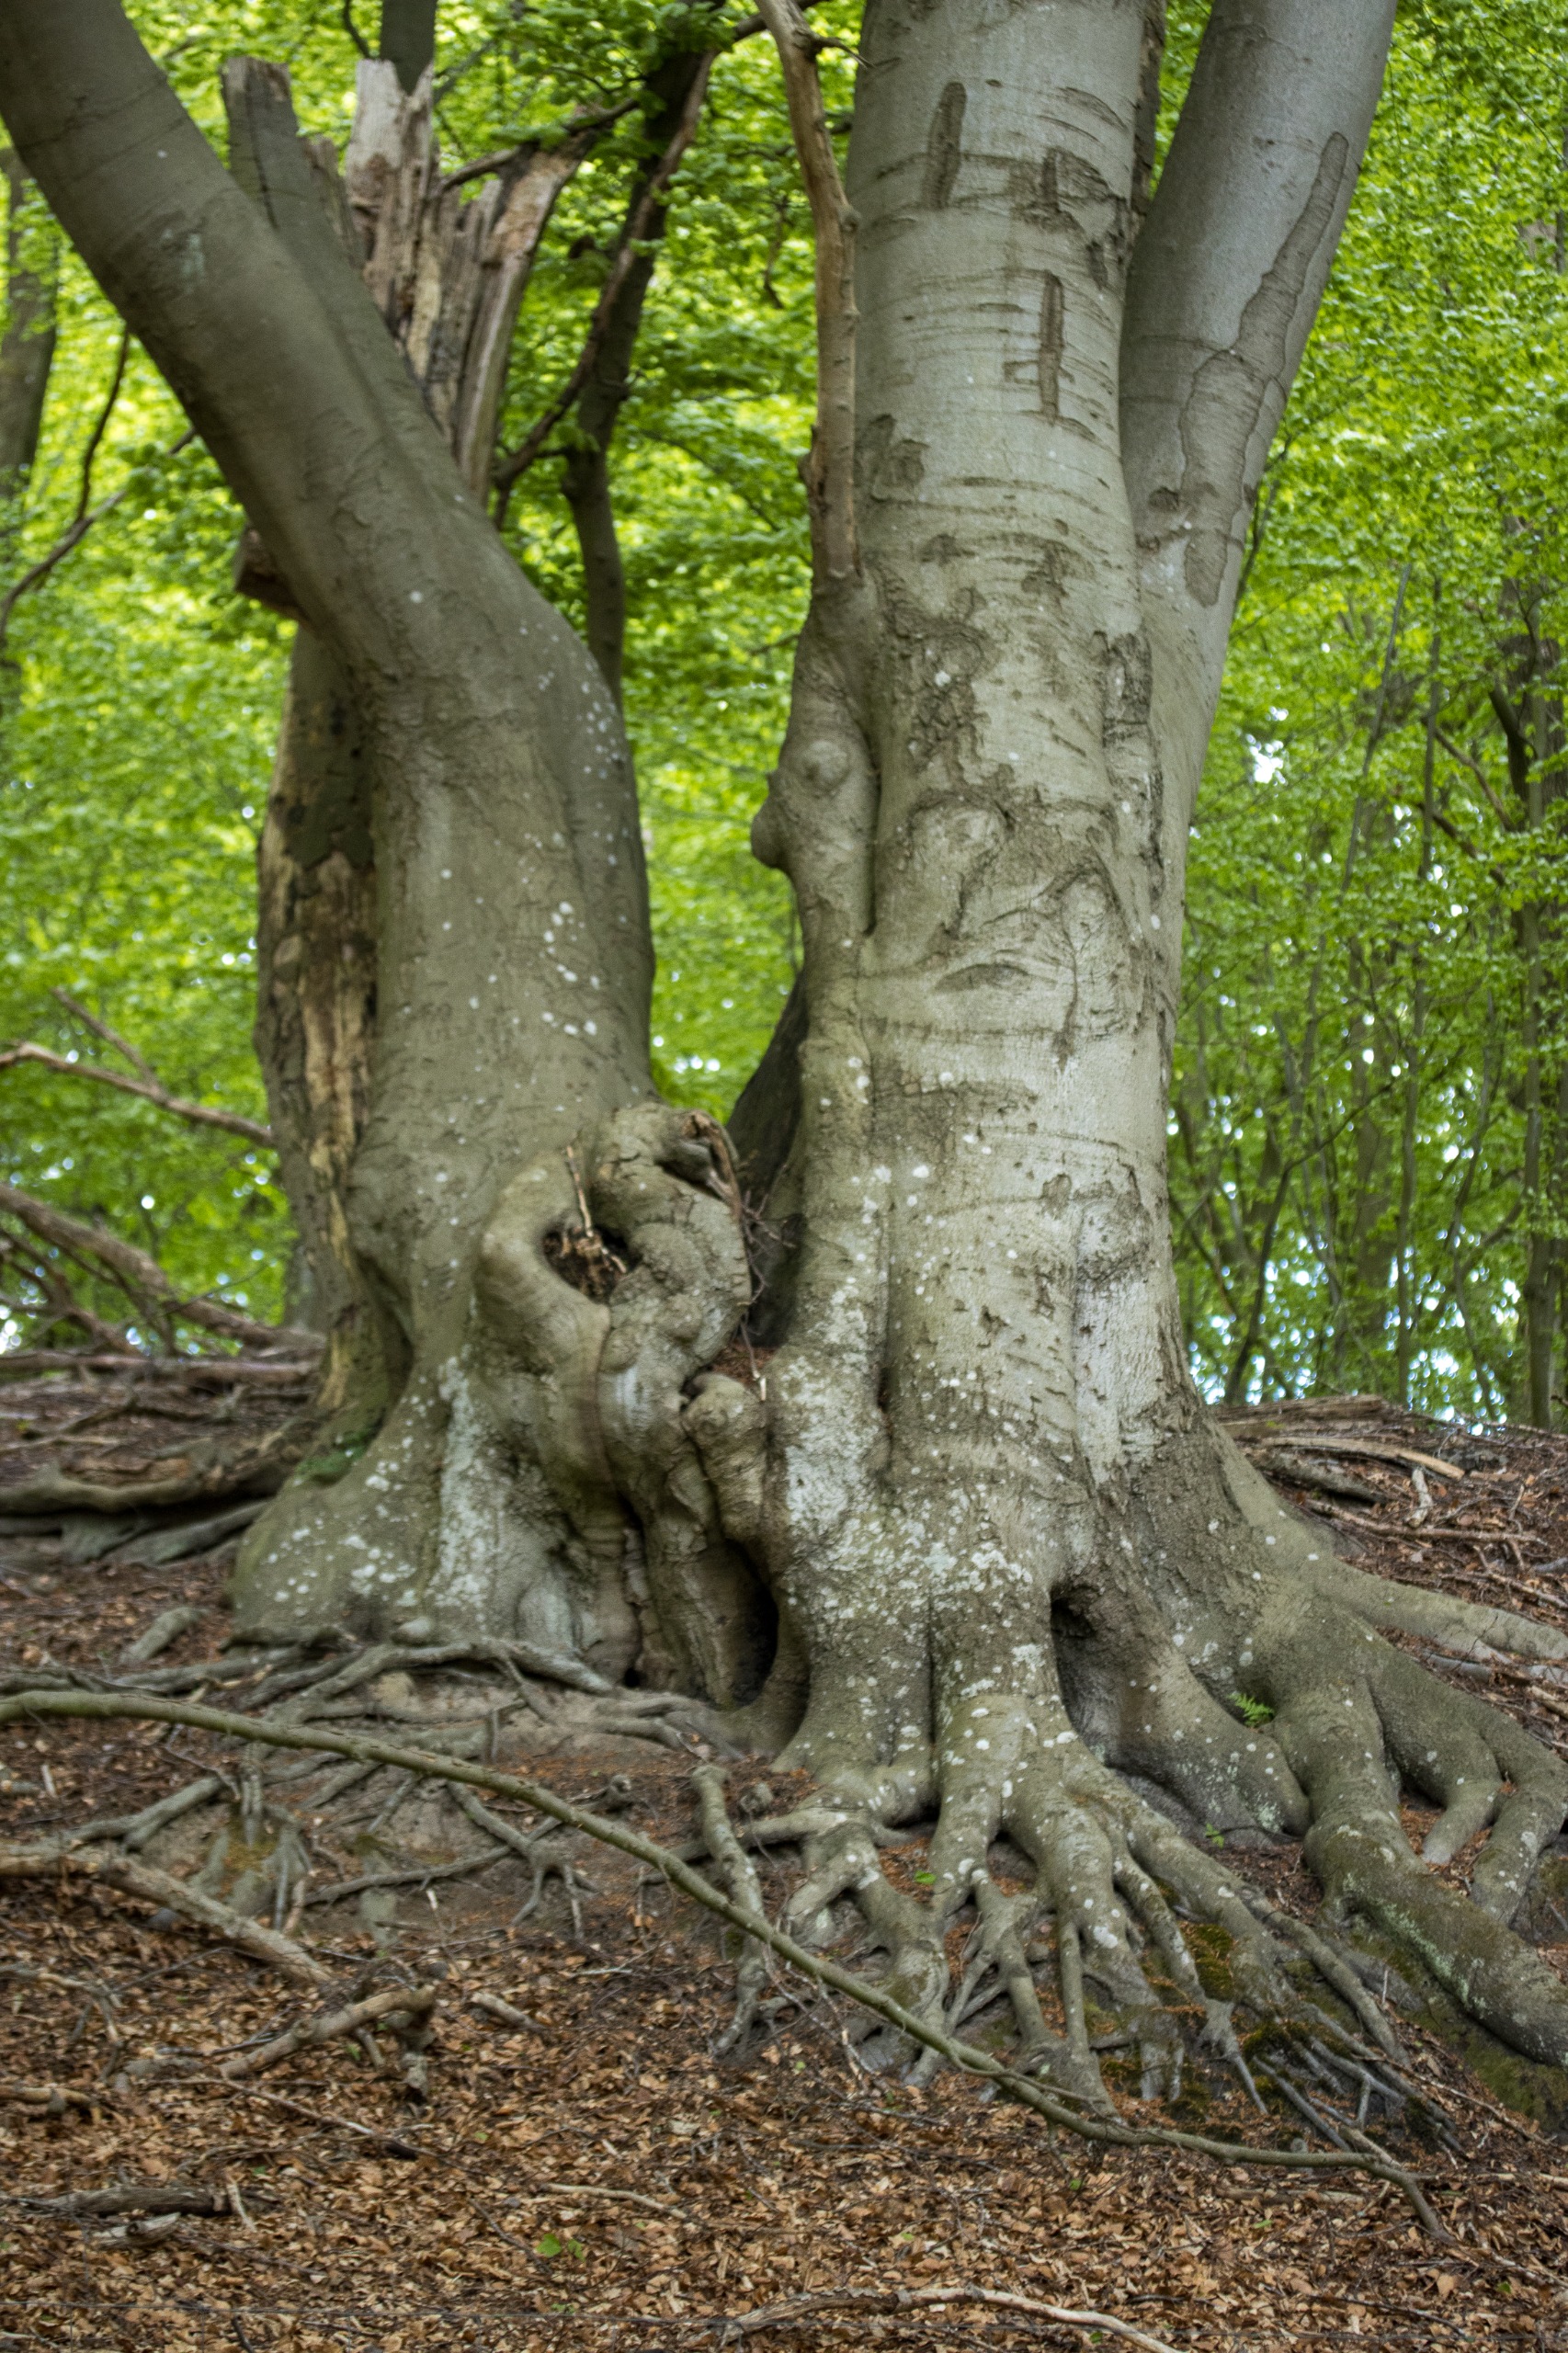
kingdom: Plantae
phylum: Tracheophyta
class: Magnoliopsida
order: Fagales
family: Fagaceae
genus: Fagus
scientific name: Fagus sylvatica
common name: Bøg
